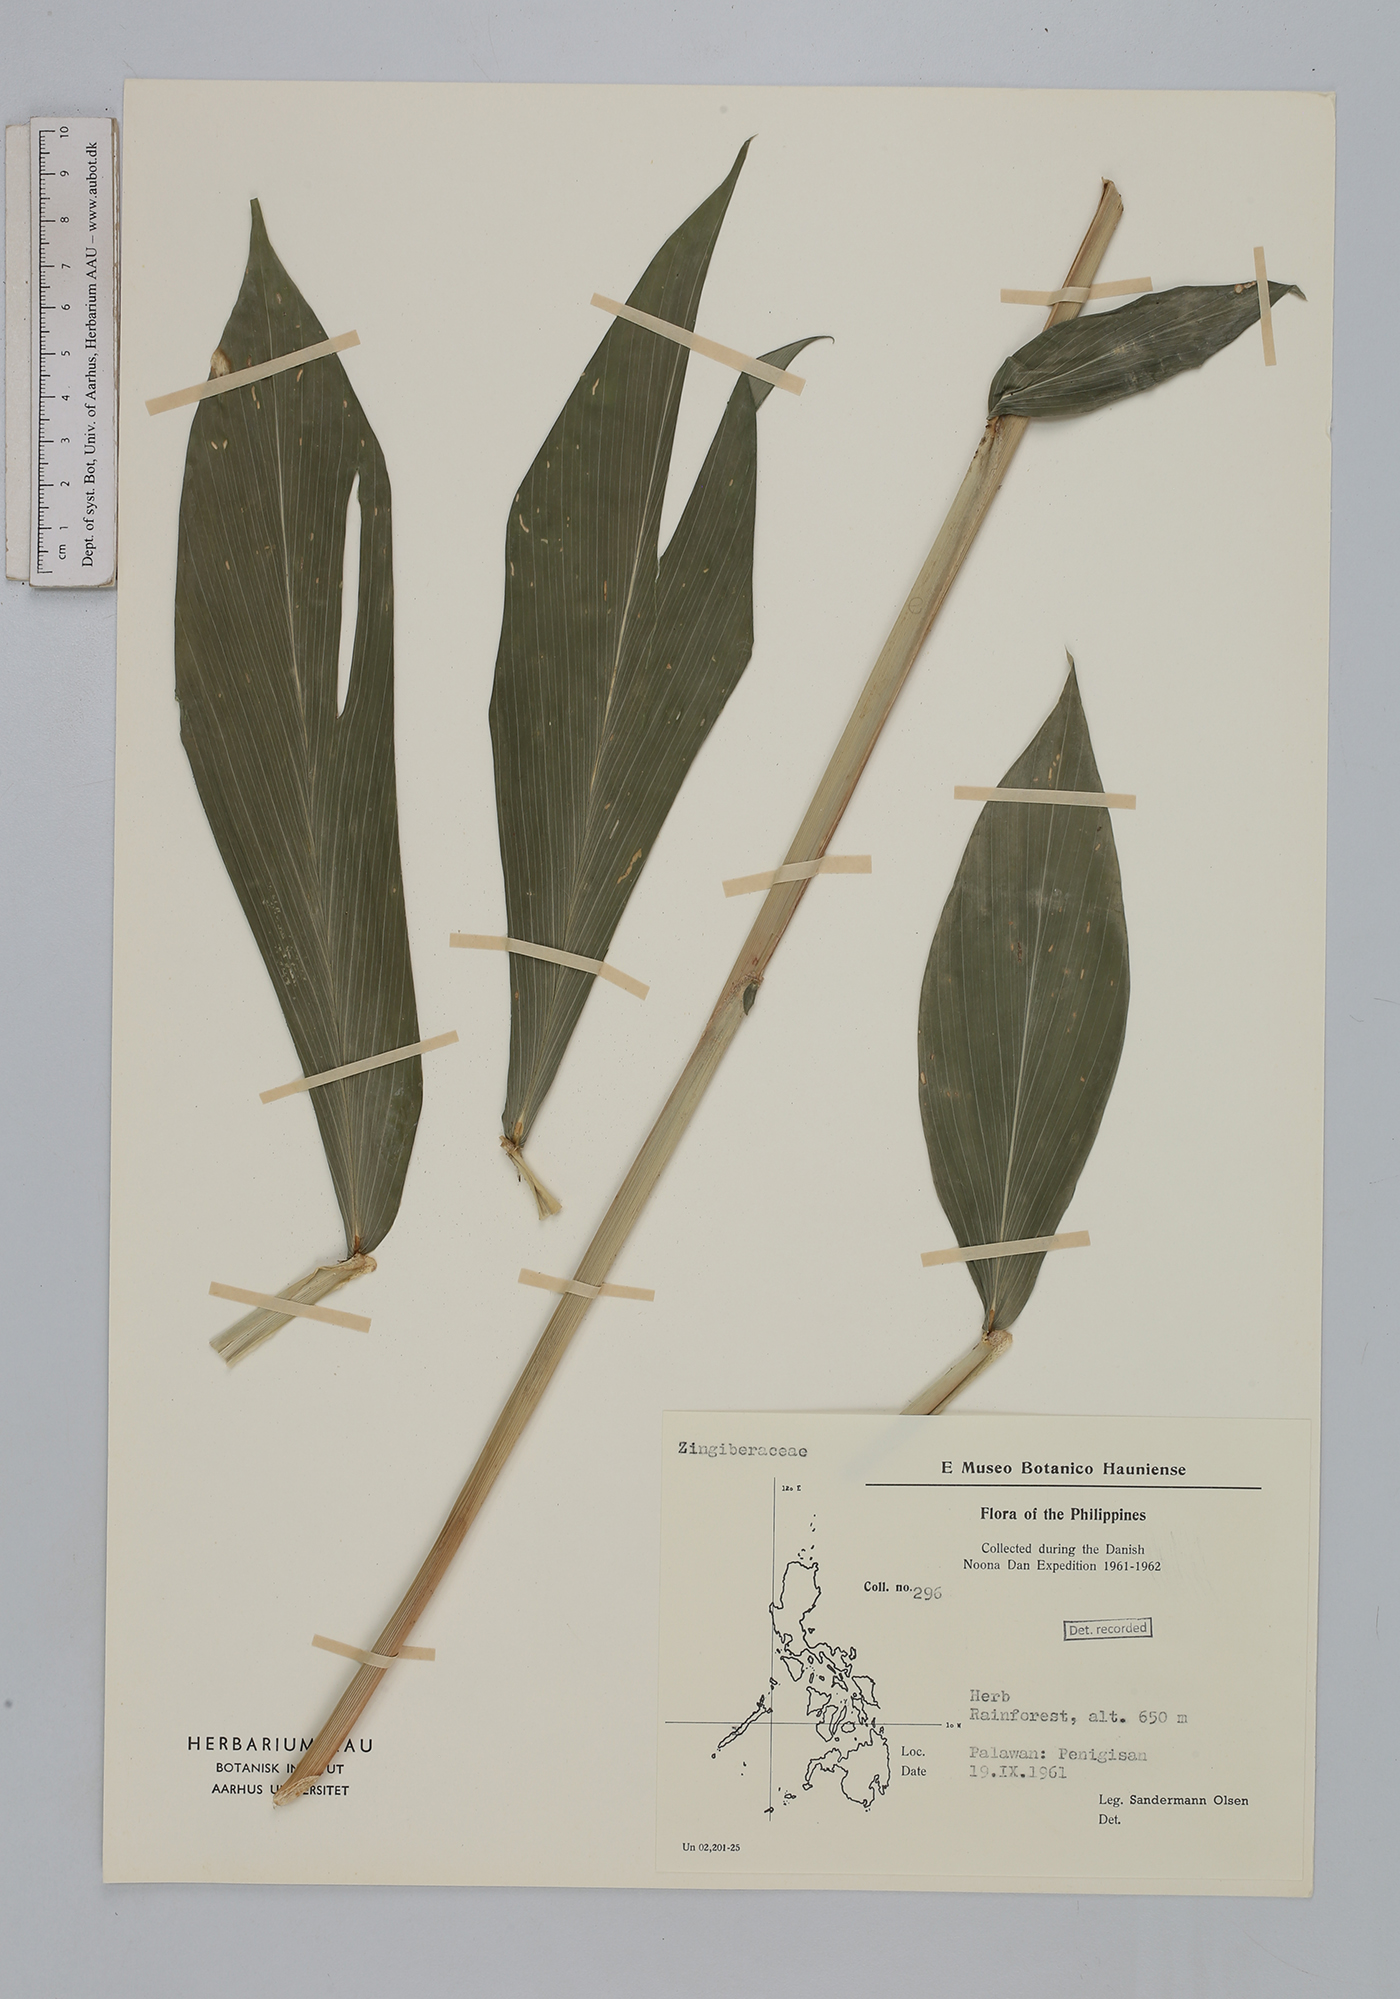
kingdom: Plantae
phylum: Tracheophyta
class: Liliopsida
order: Zingiberales
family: Zingiberaceae
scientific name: Zingiberaceae
